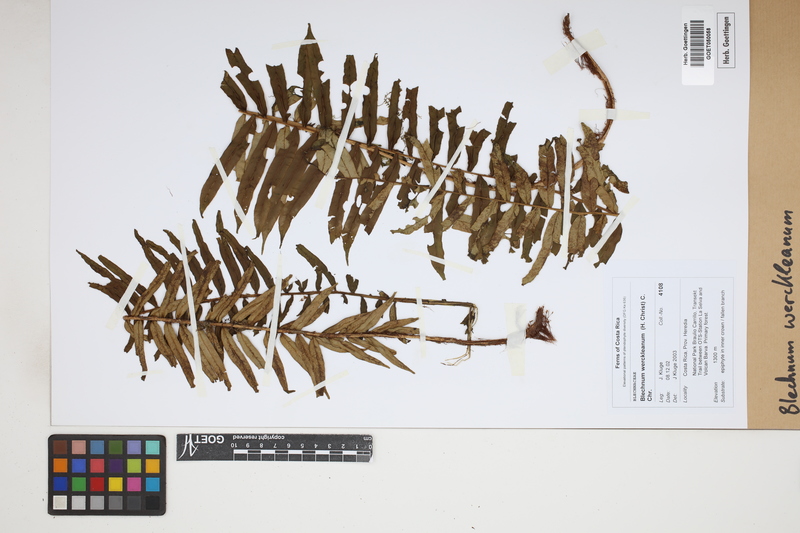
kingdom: Plantae
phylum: Tracheophyta
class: Polypodiopsida
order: Polypodiales
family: Blechnaceae
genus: Lomariocycas
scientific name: Lomariocycas werckleana
